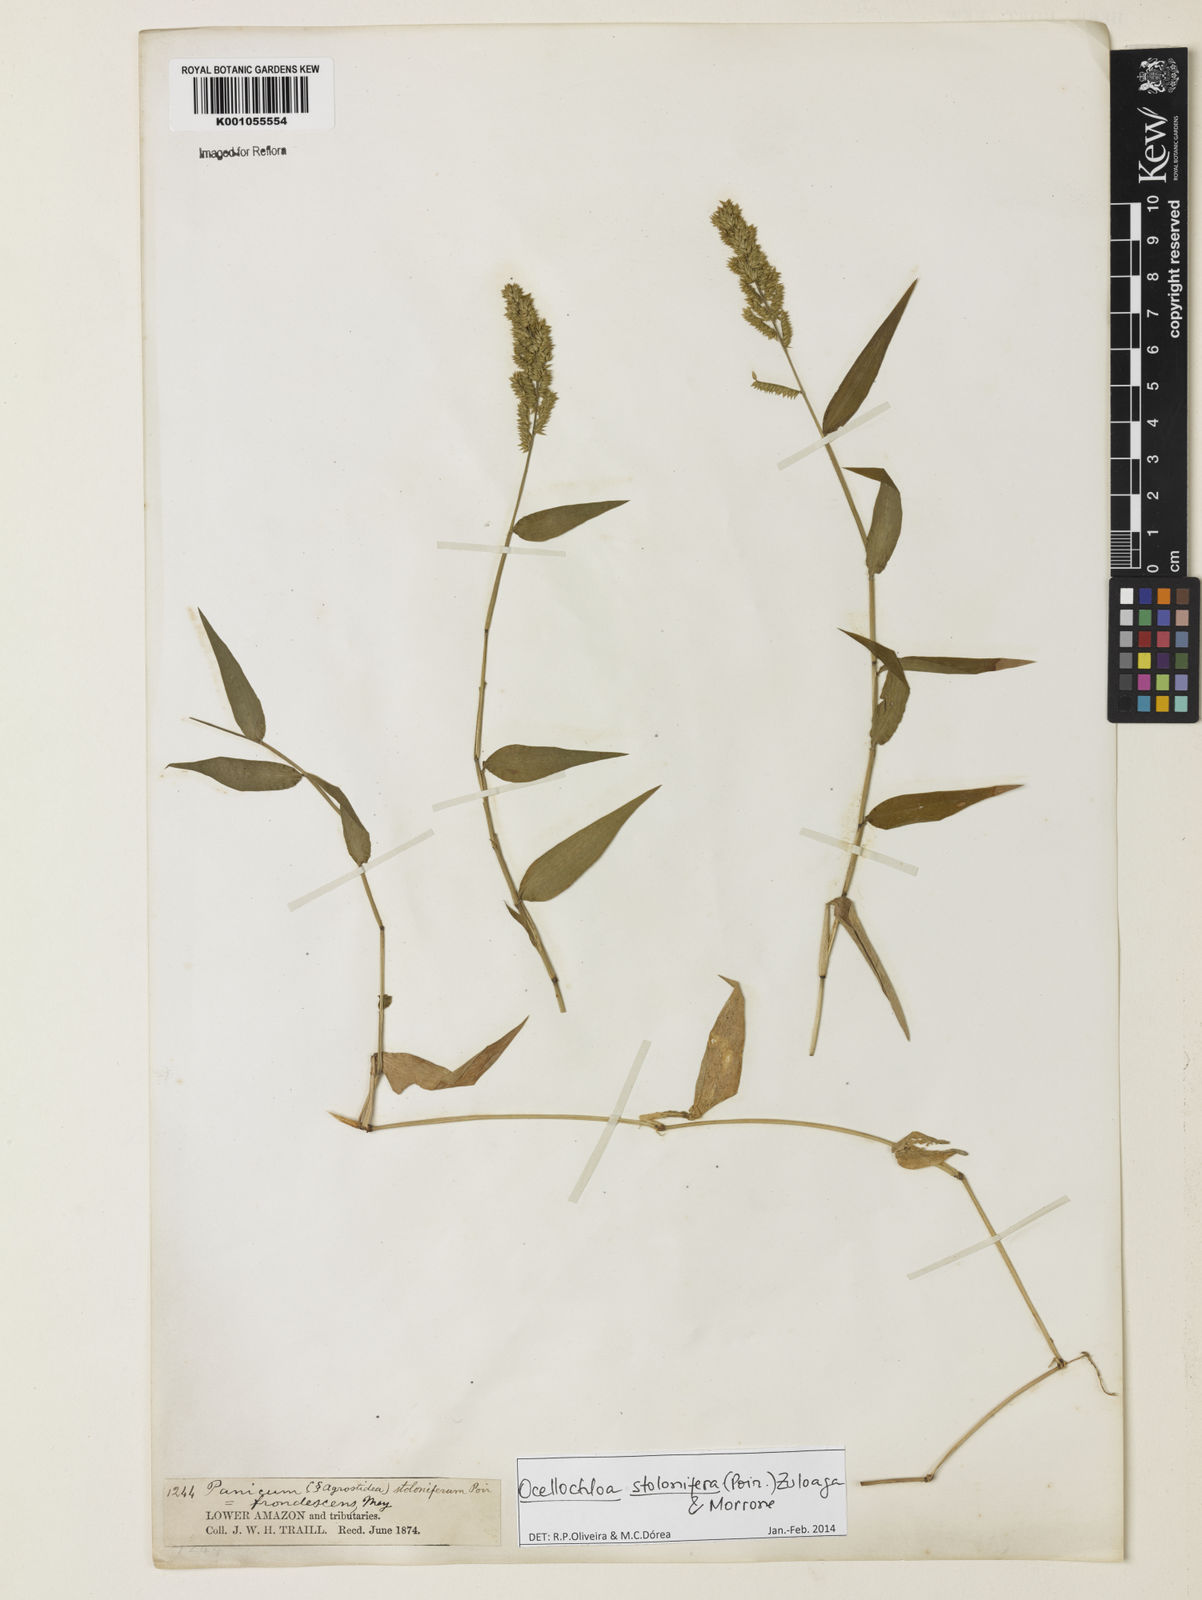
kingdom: Plantae
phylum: Tracheophyta
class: Liliopsida
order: Poales
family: Poaceae
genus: Ocellochloa
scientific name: Ocellochloa stolonifera
